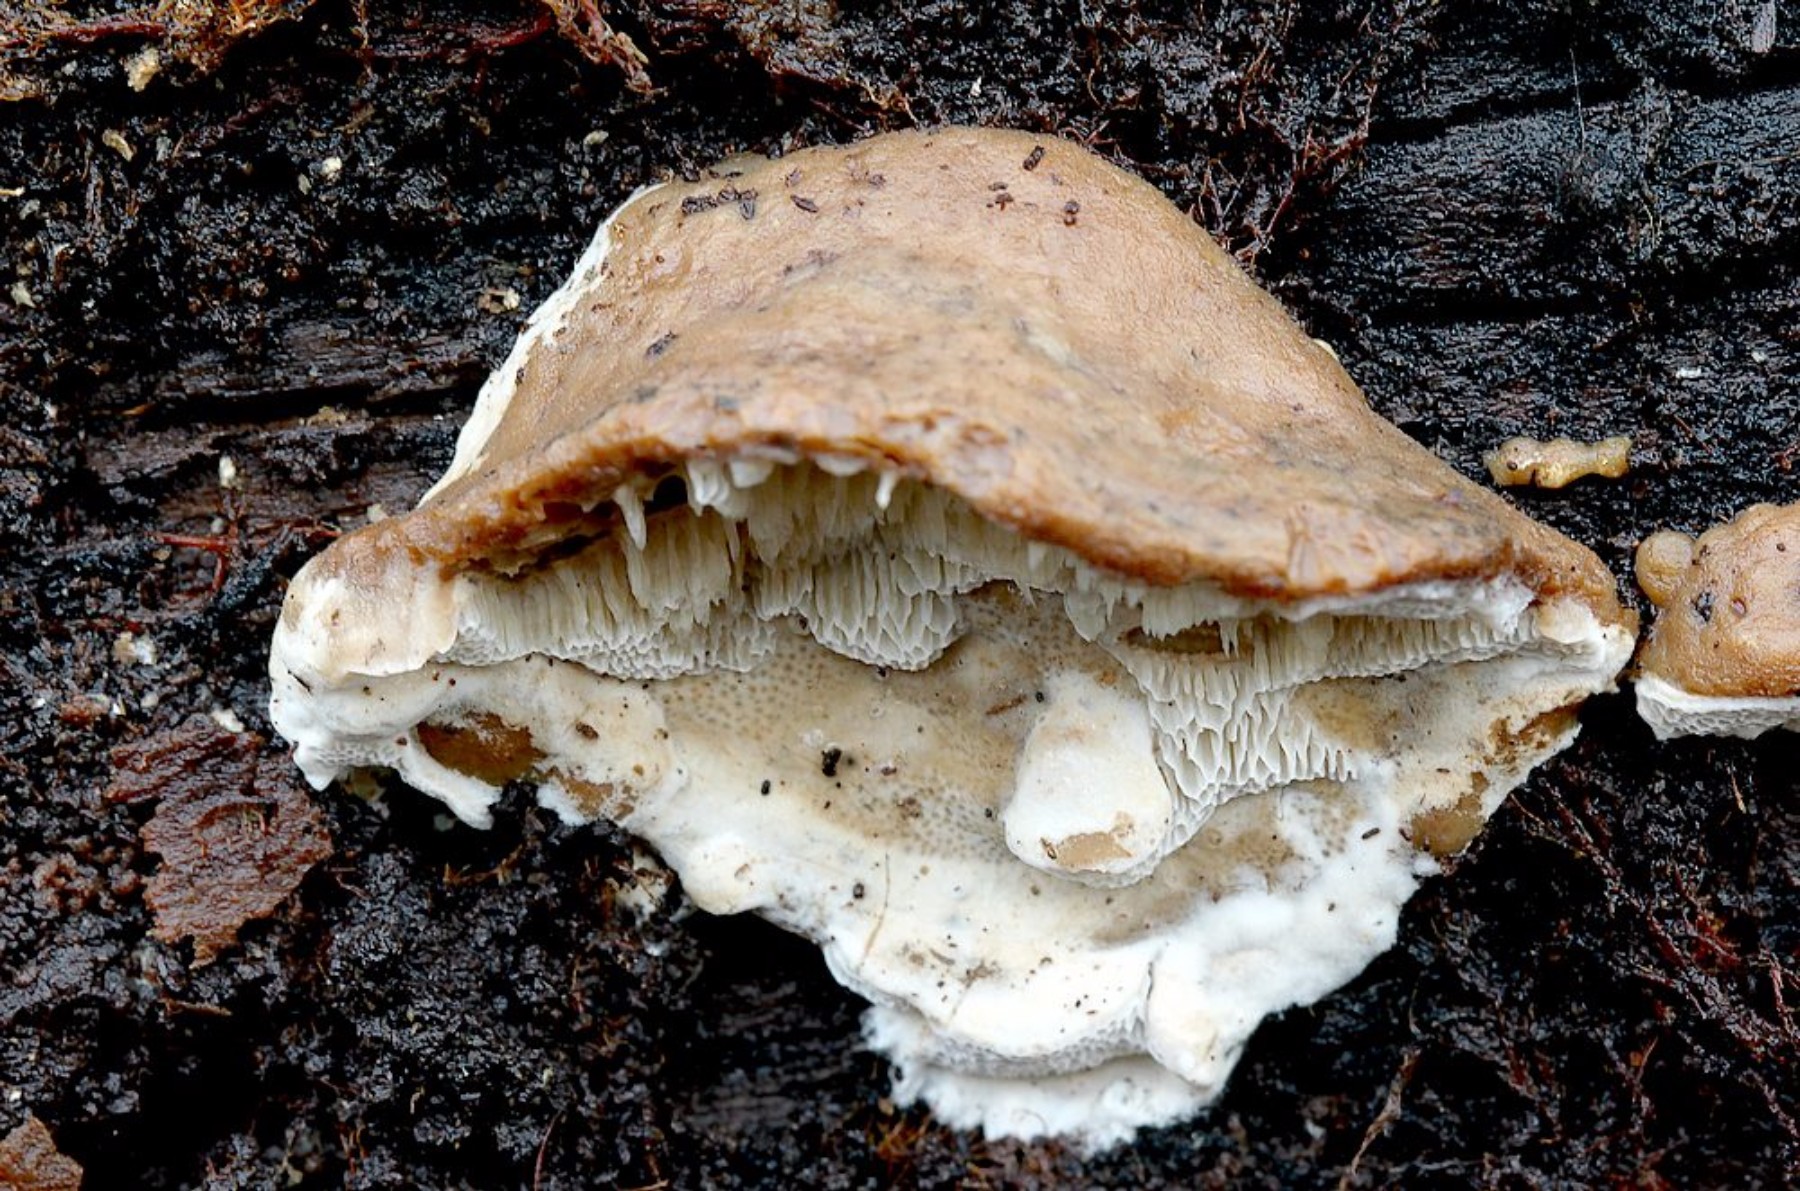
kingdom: Fungi
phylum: Basidiomycota
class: Agaricomycetes
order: Polyporales
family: Phanerochaetaceae
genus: Bjerkandera
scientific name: Bjerkandera fumosa
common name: grågul sodporesvamp
